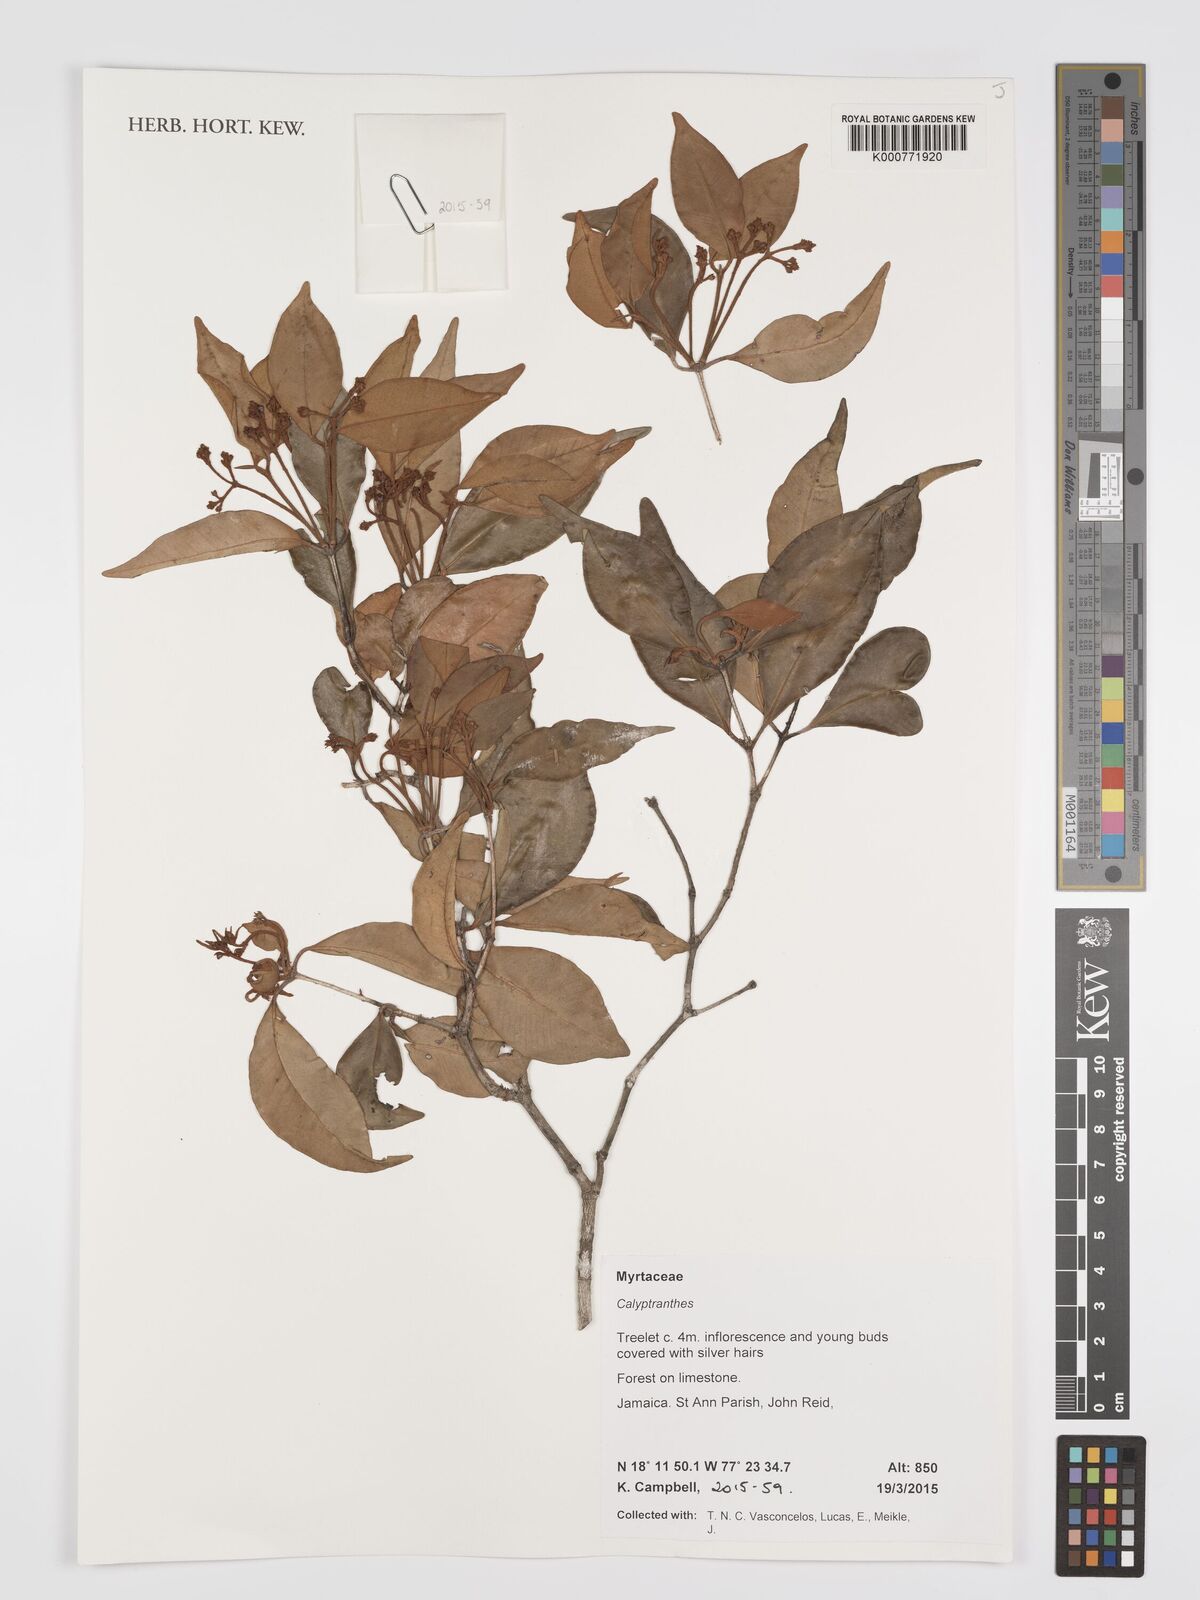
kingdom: Plantae
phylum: Tracheophyta
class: Magnoliopsida
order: Myrtales
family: Myrtaceae
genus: Calyptranthes
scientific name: Calyptranthes
